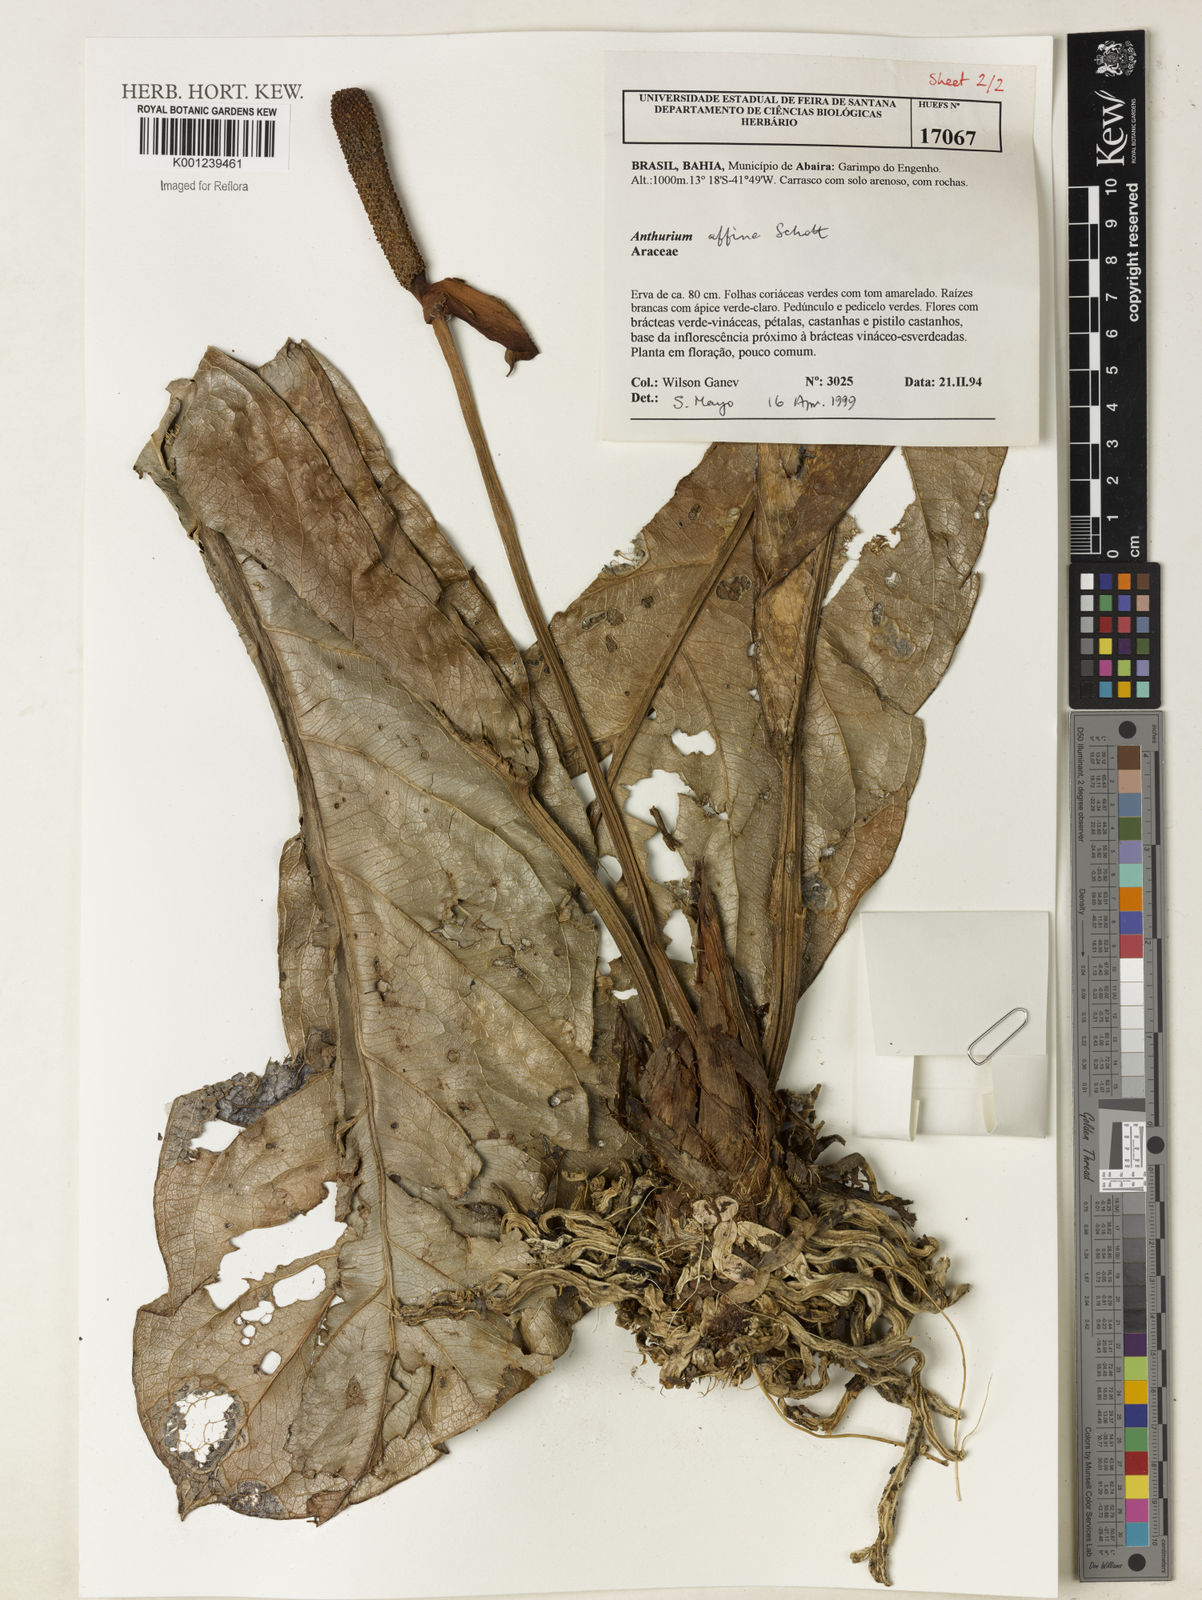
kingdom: Plantae
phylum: Tracheophyta
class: Liliopsida
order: Alismatales
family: Araceae
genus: Anthurium
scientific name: Anthurium affine
